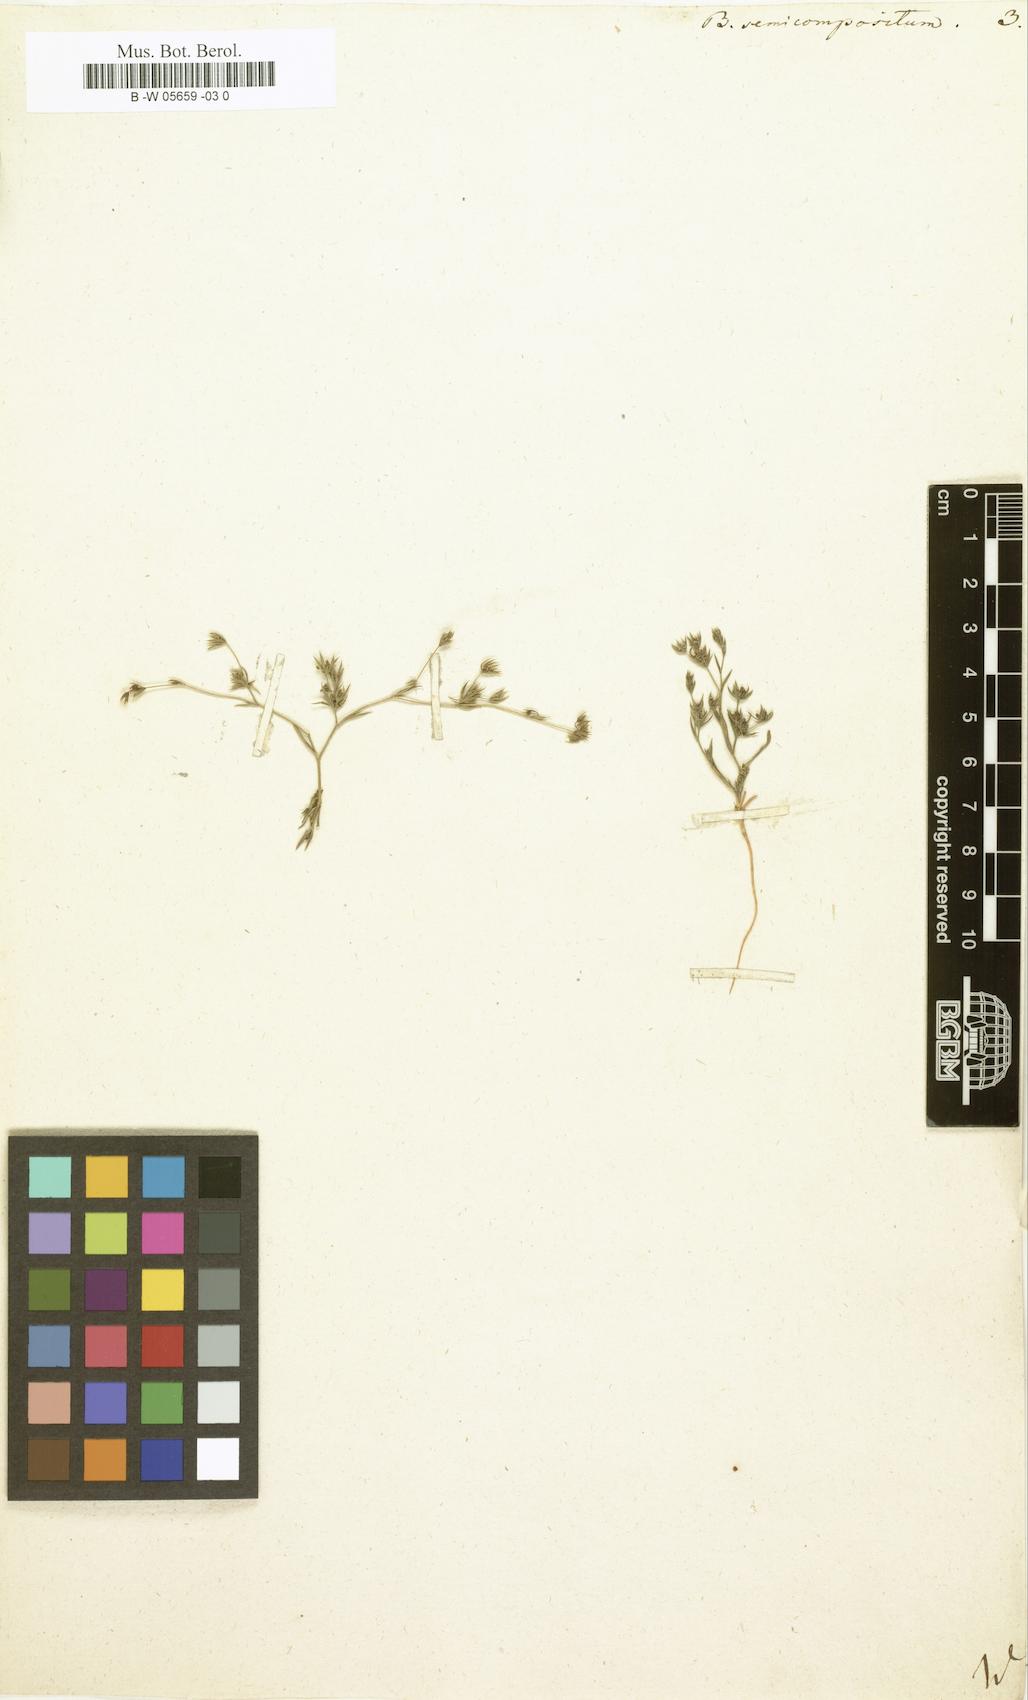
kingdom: Plantae
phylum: Tracheophyta
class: Magnoliopsida
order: Apiales
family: Apiaceae
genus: Bupleurum
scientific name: Bupleurum semicompositum
